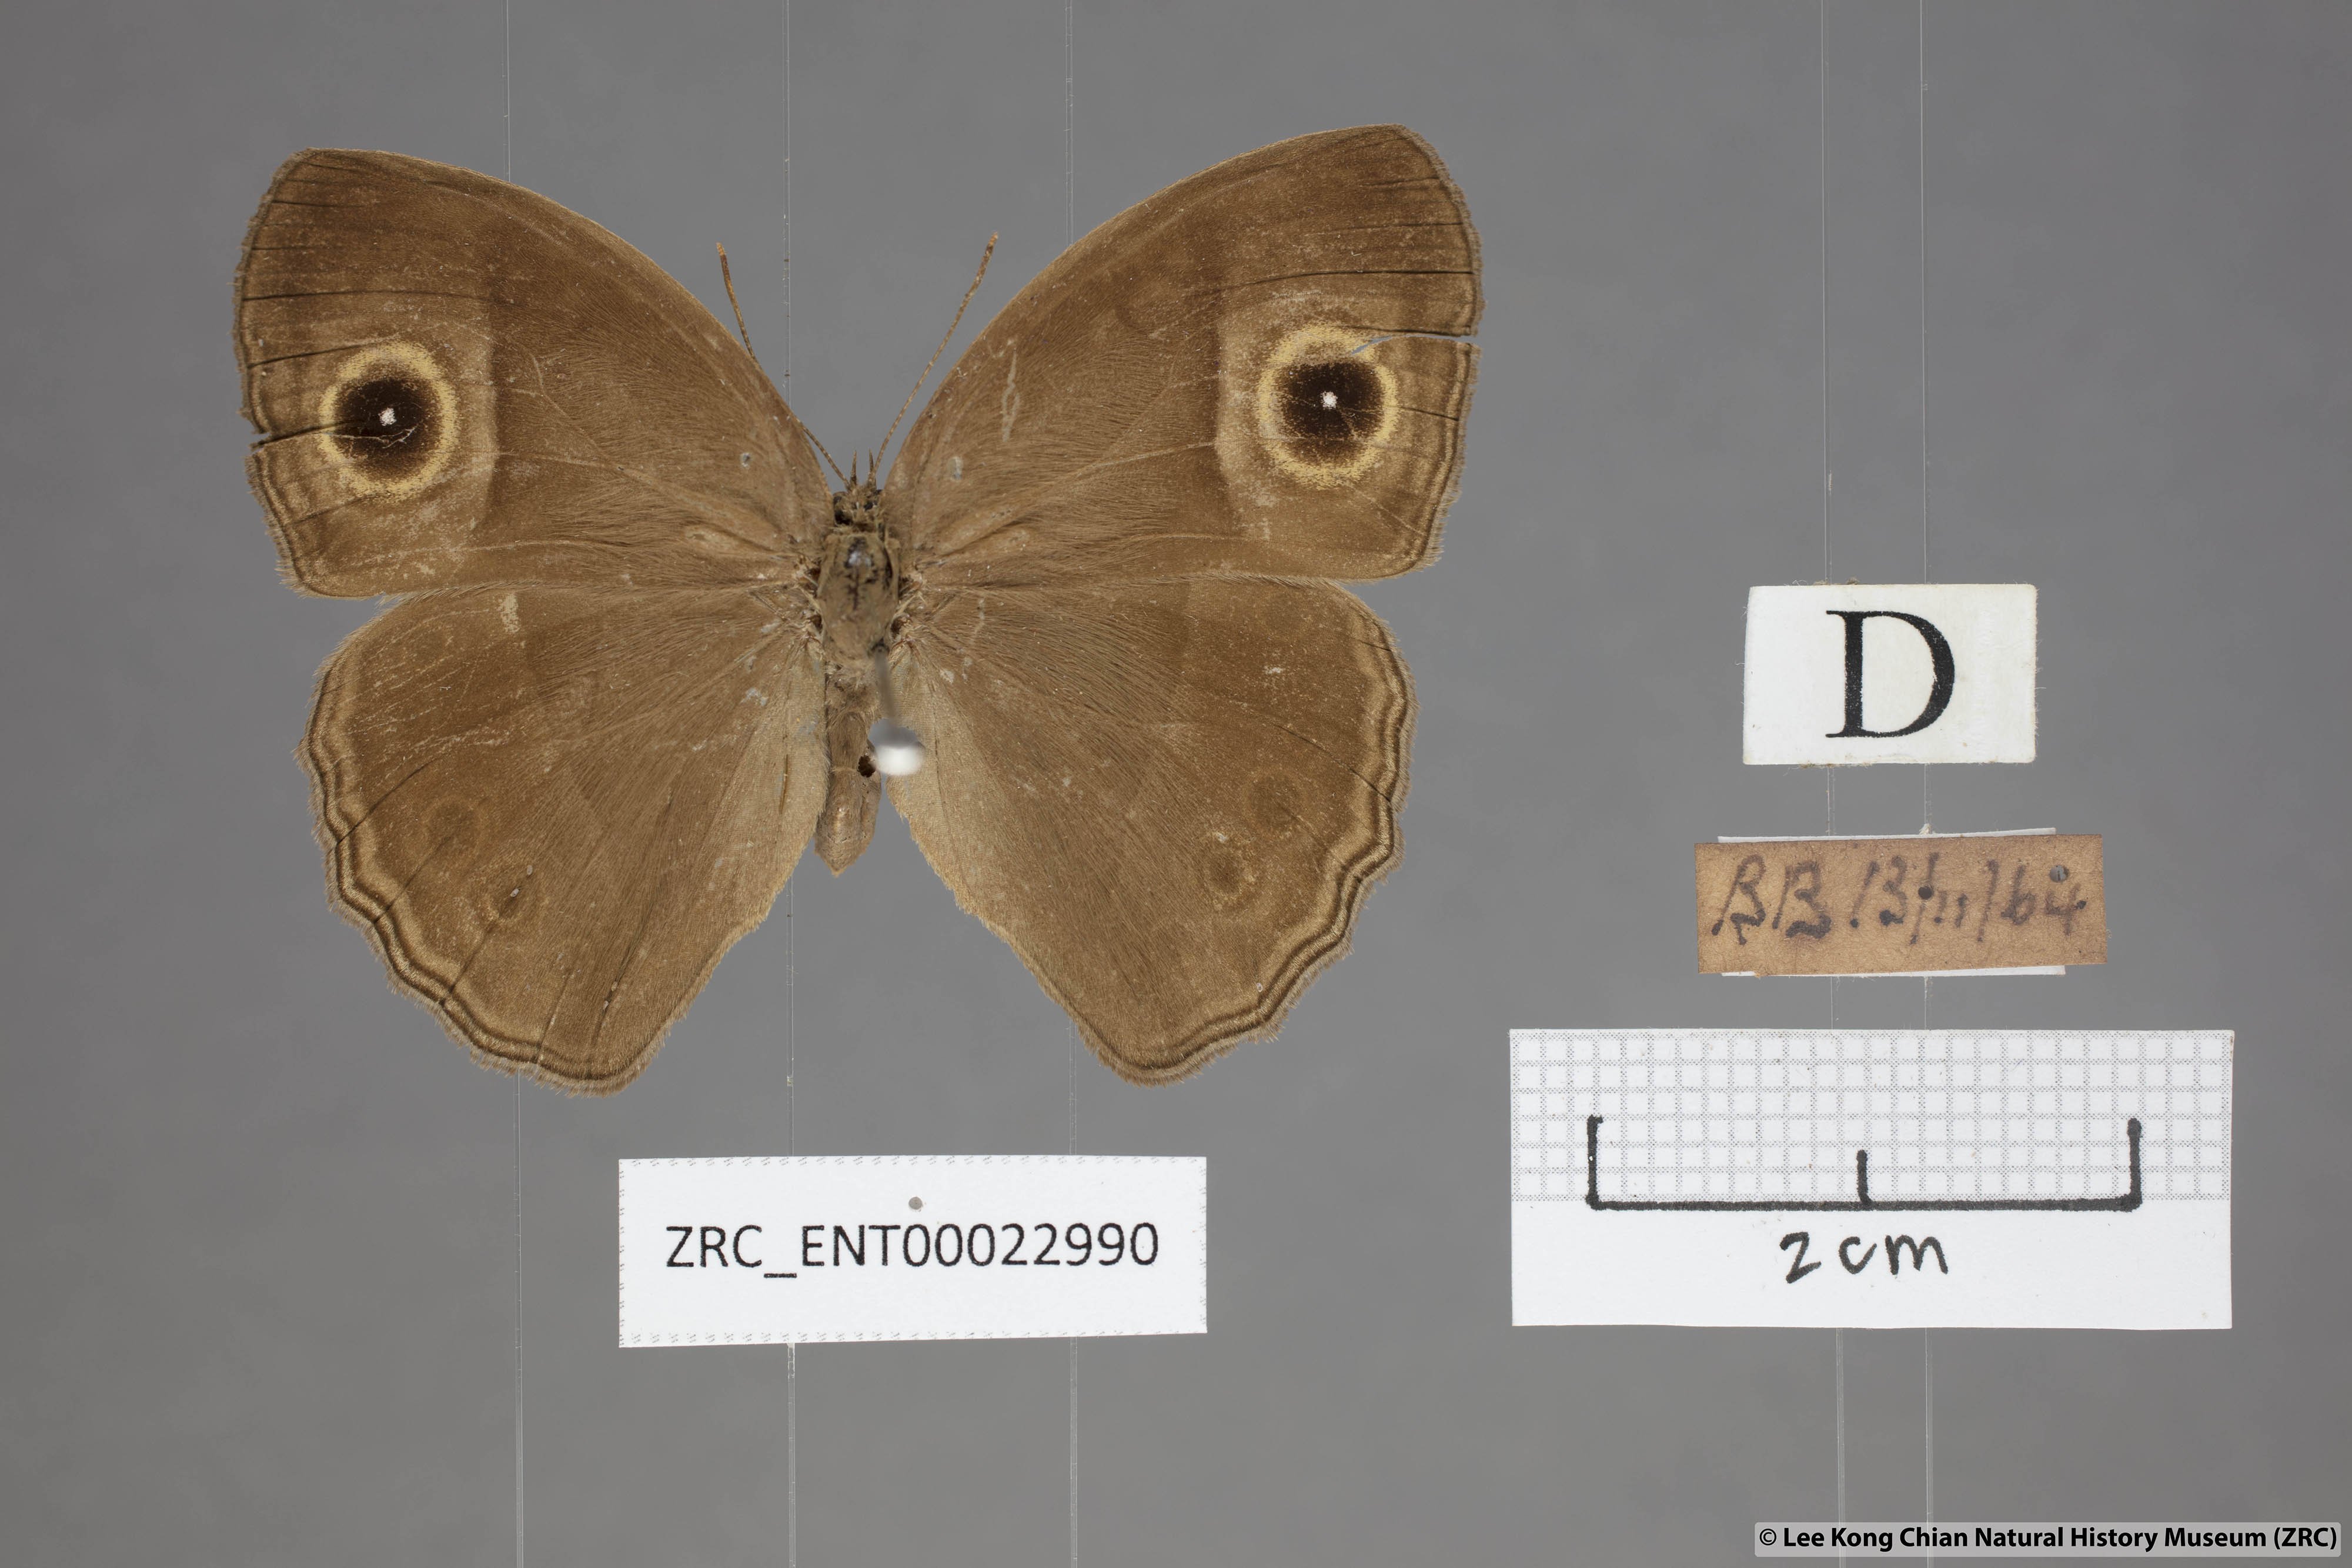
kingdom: Animalia
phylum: Arthropoda
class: Insecta
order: Lepidoptera
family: Nymphalidae
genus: Mycalesis
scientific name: Mycalesis perseoides
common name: Burmese bushbrown
